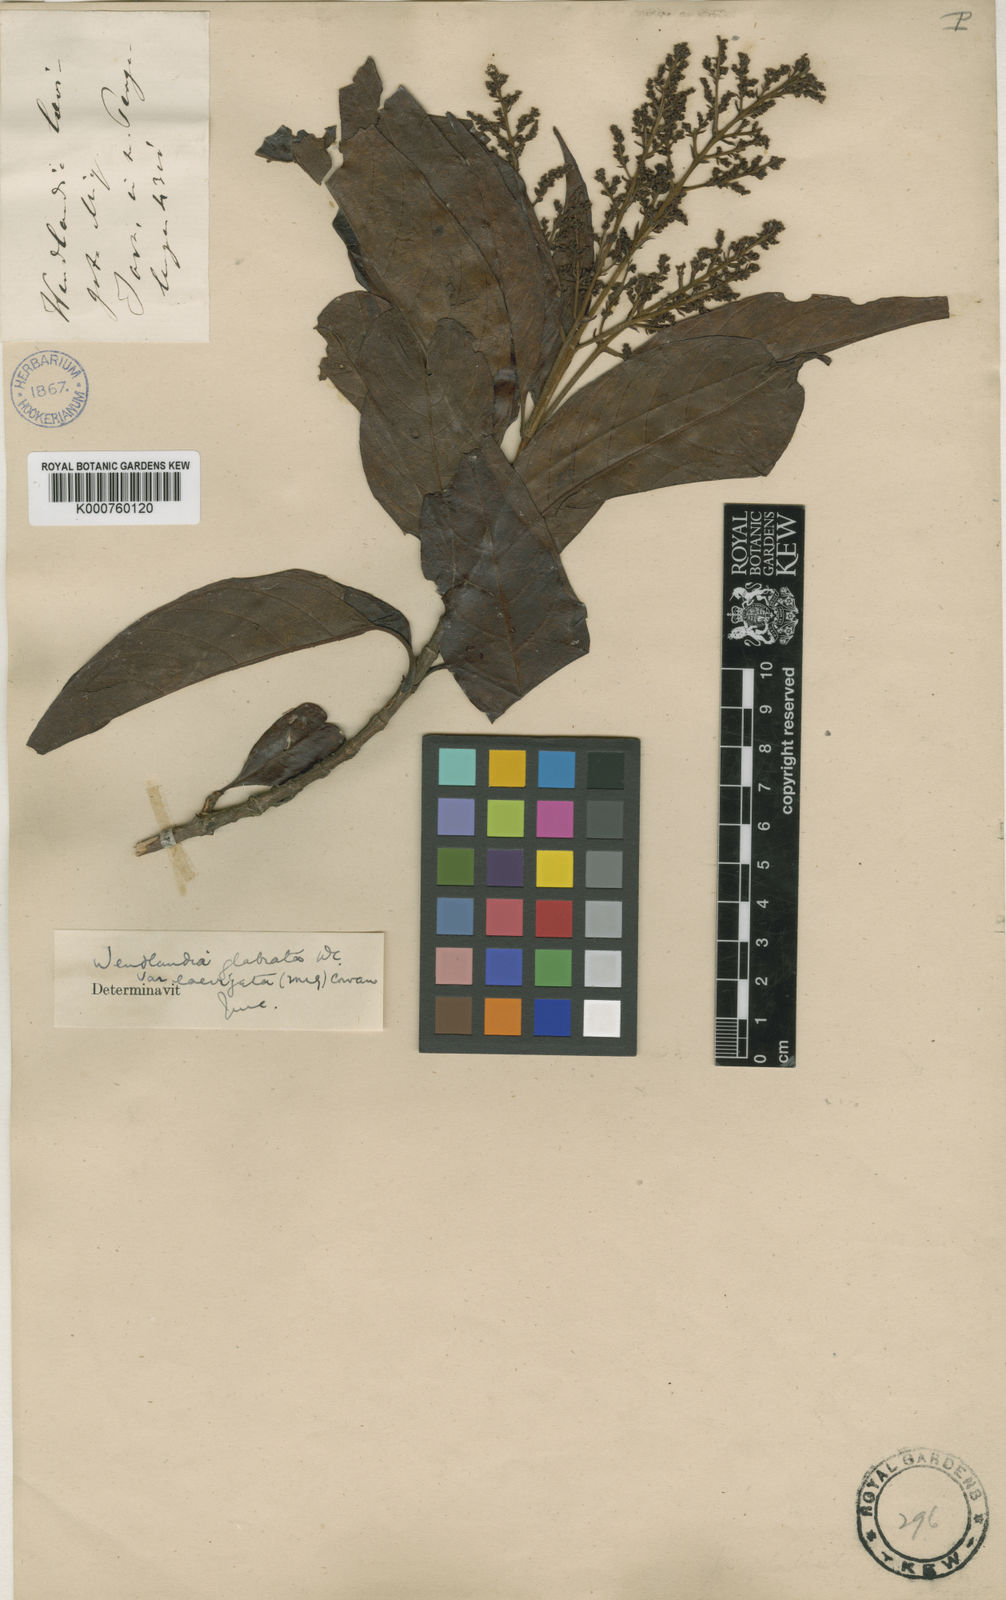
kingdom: Plantae
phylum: Tracheophyta
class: Magnoliopsida
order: Gentianales
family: Rubiaceae
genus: Wendlandia
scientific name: Wendlandia glabrata
